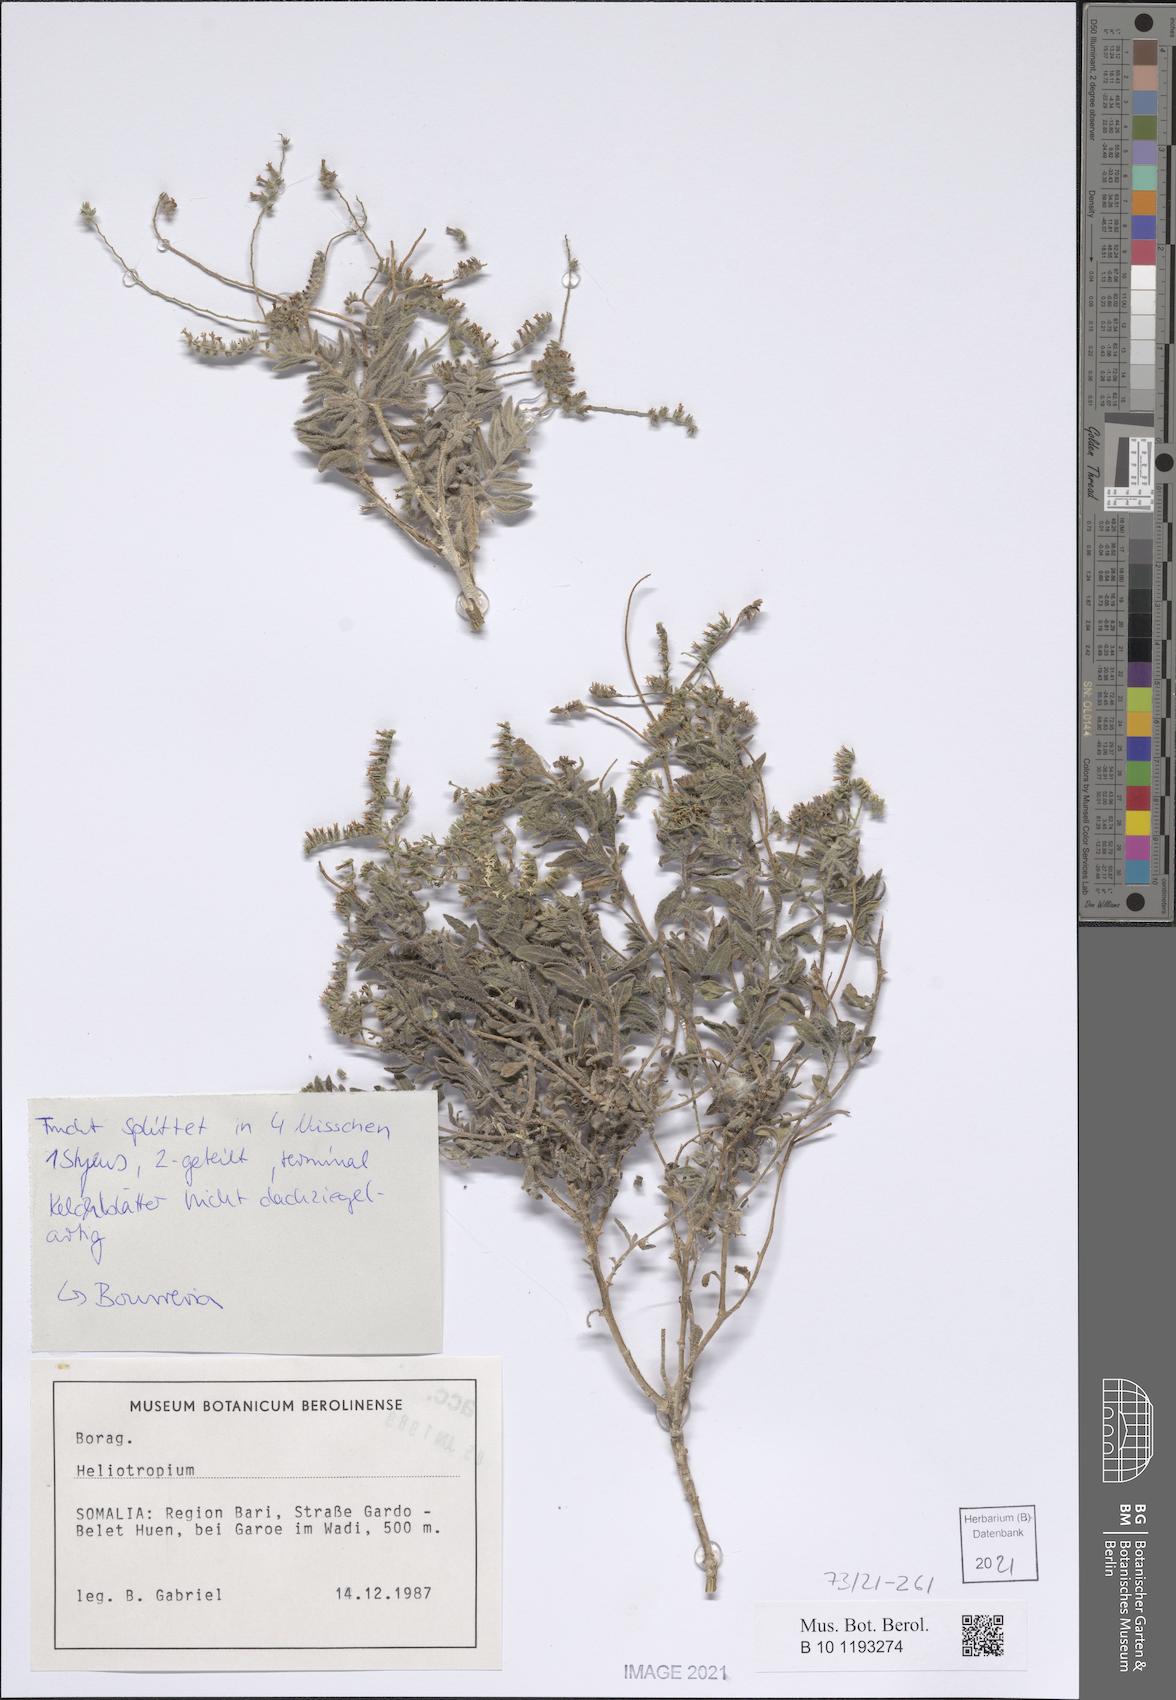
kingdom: Plantae
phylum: Tracheophyta
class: Magnoliopsida
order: Boraginales
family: Heliotropiaceae
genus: Heliotropium
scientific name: Heliotropium ophioglossum
